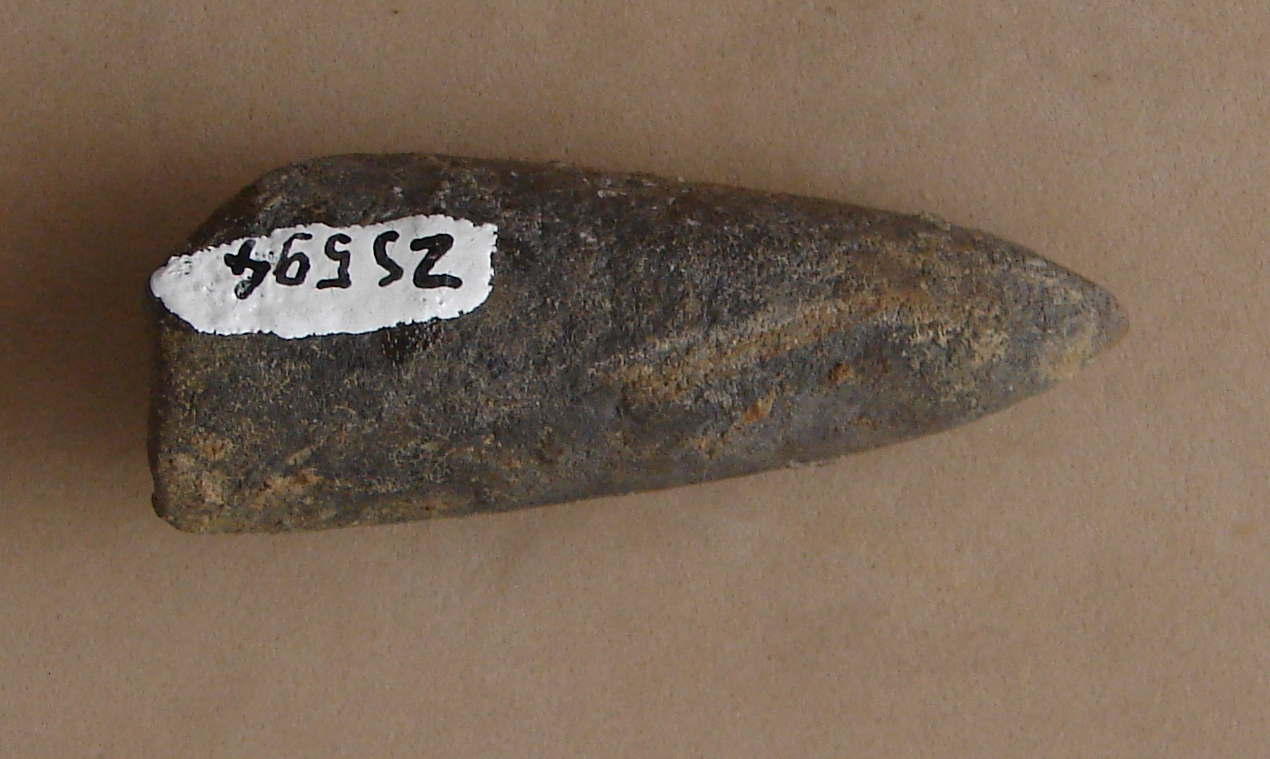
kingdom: Animalia
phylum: Mollusca
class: Cephalopoda
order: Belemnitida
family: Passaloteuthidae
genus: Brevibelus
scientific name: Brevibelus
